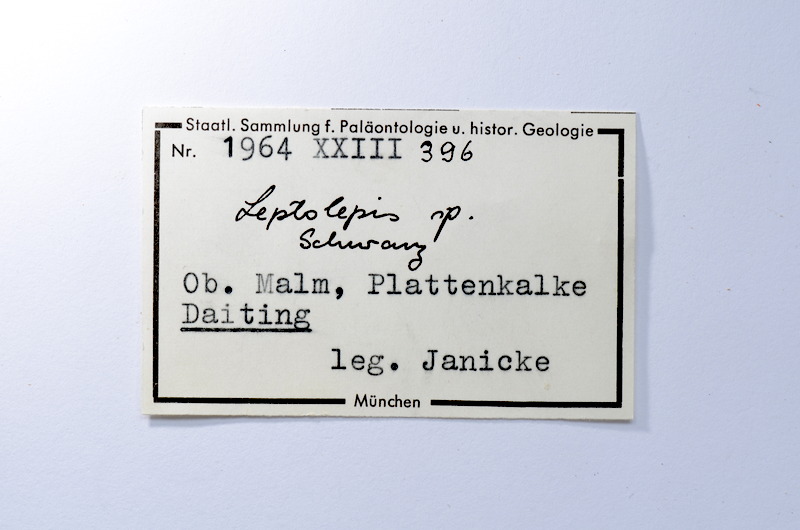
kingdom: Animalia
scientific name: Animalia
